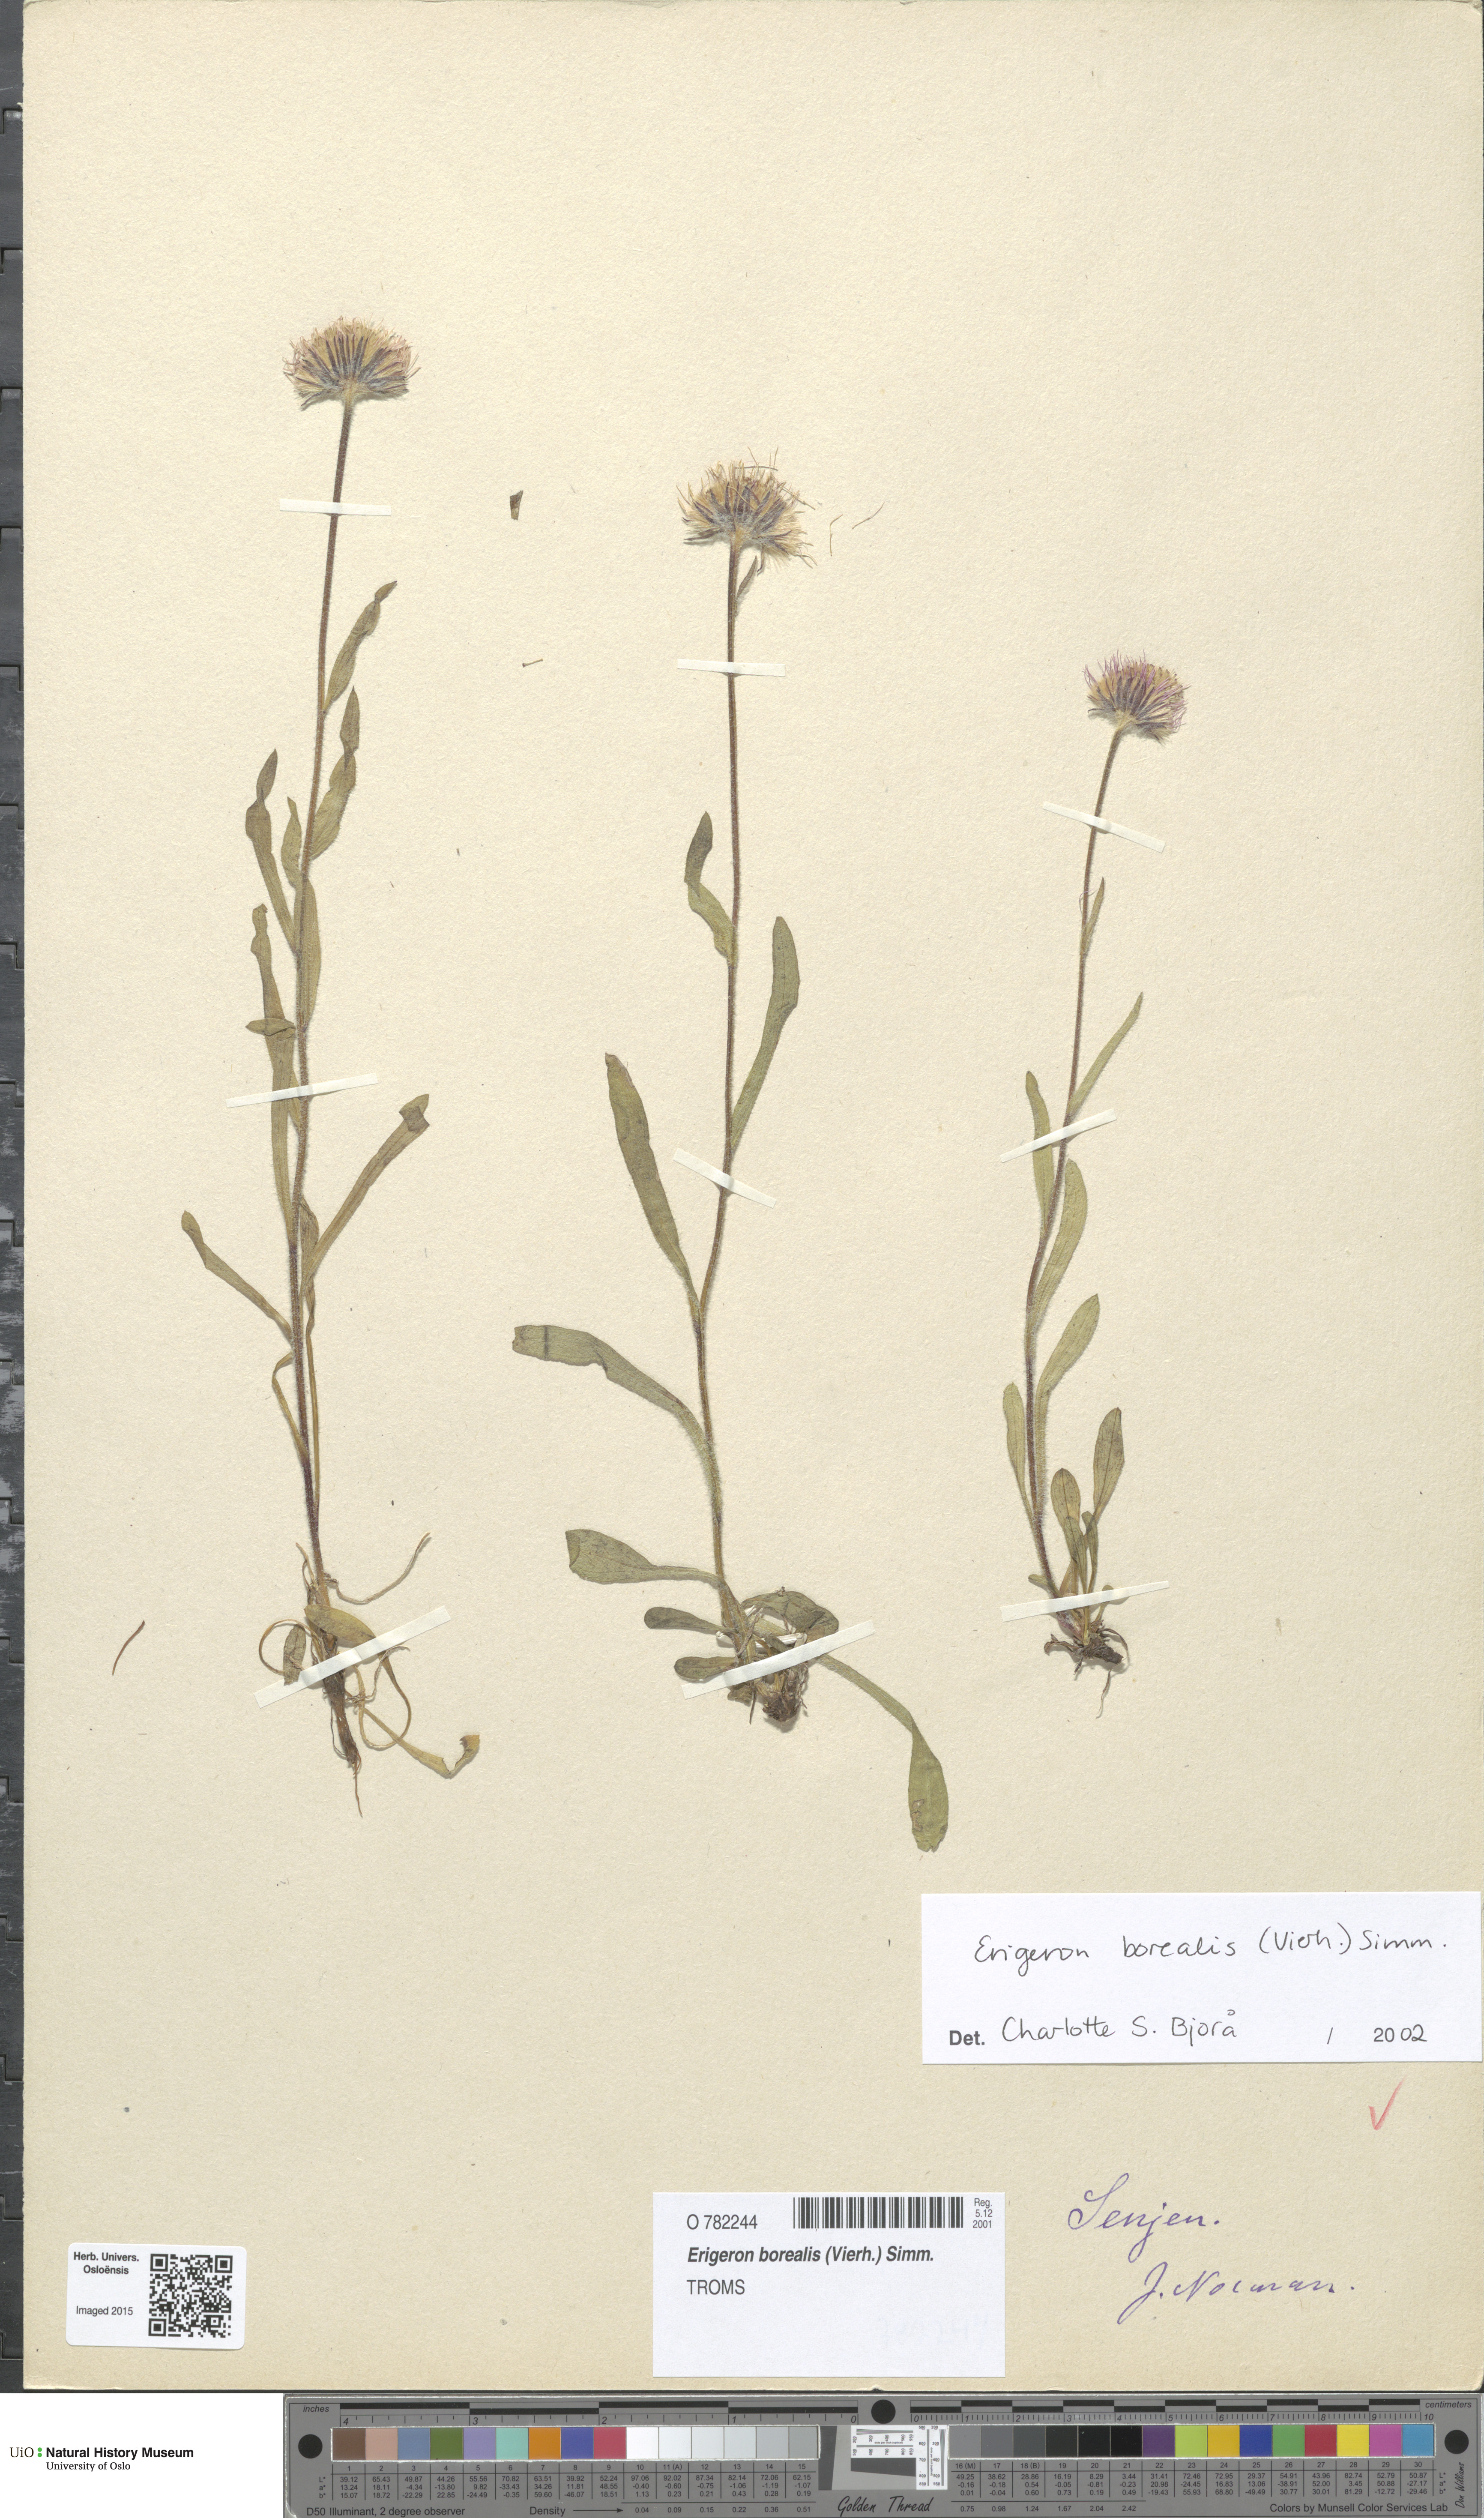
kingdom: Plantae
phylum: Tracheophyta
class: Magnoliopsida
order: Asterales
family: Asteraceae
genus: Erigeron
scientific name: Erigeron borealis
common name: Alpine fleabane
